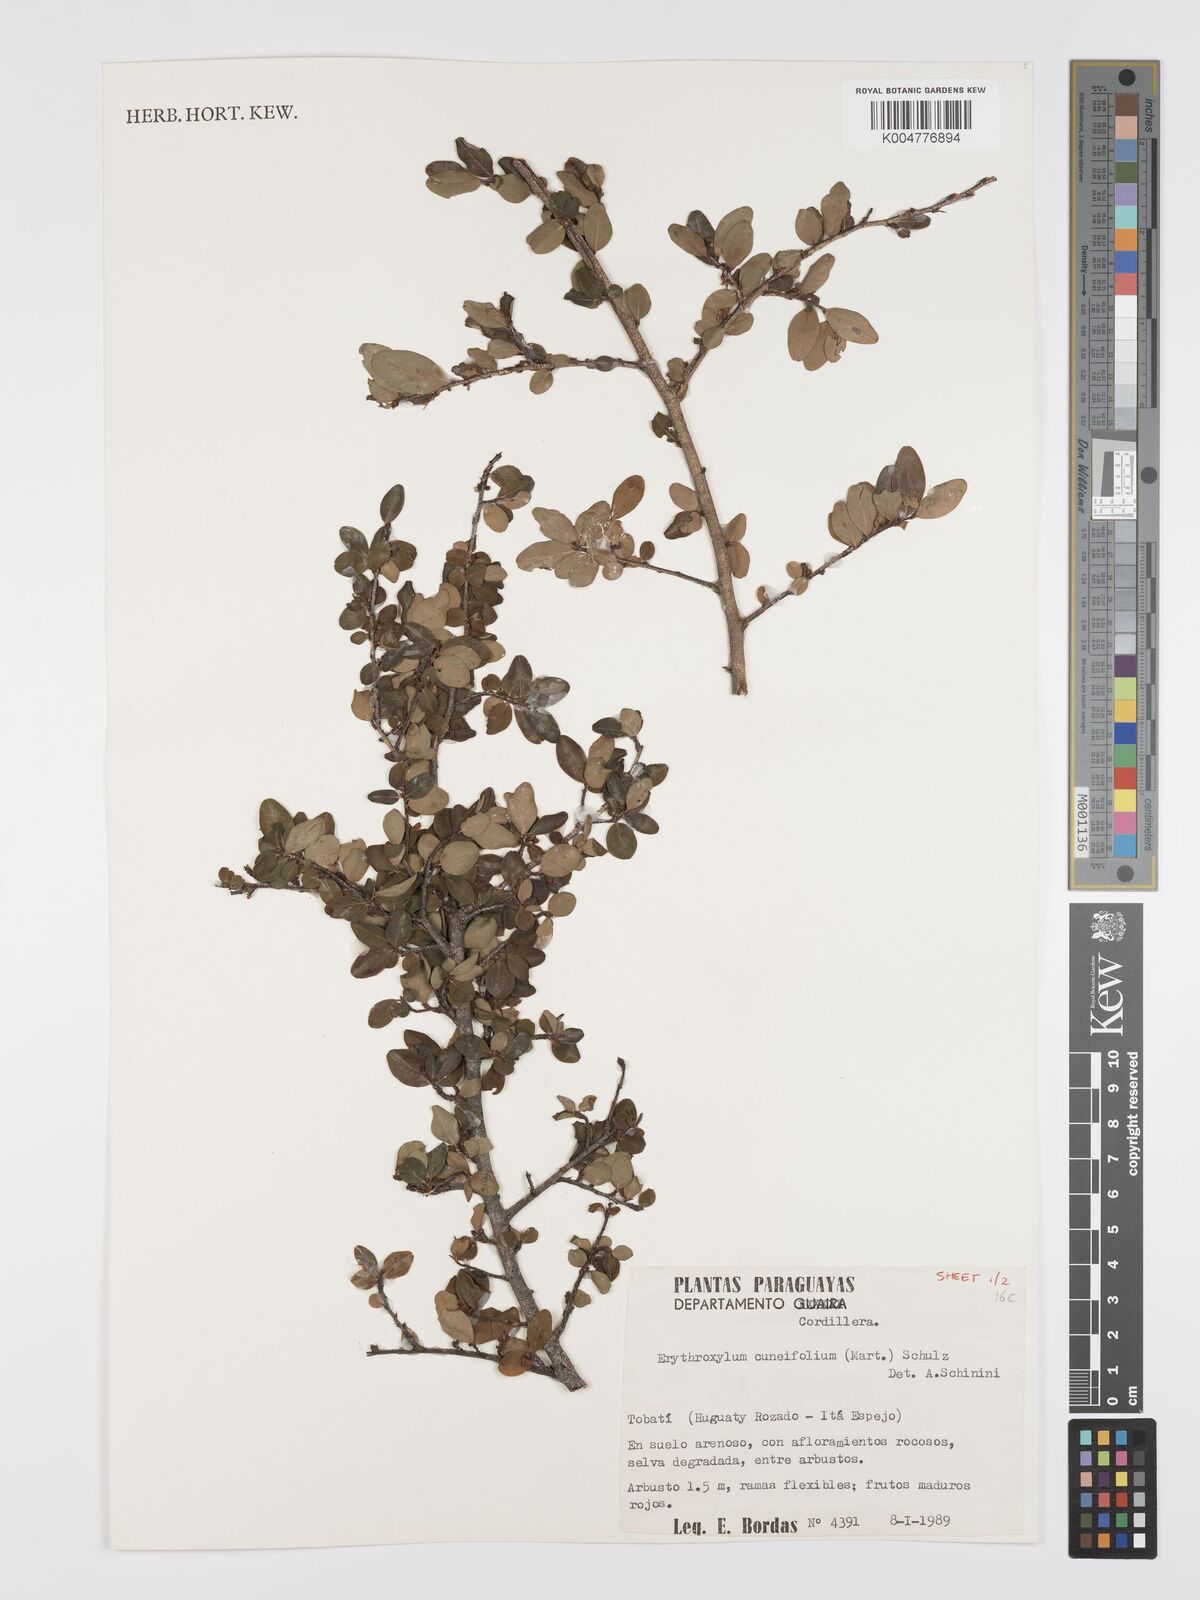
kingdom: Plantae
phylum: Tracheophyta
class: Magnoliopsida
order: Malpighiales
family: Erythroxylaceae
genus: Erythroxylum
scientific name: Erythroxylum cuneifolium
